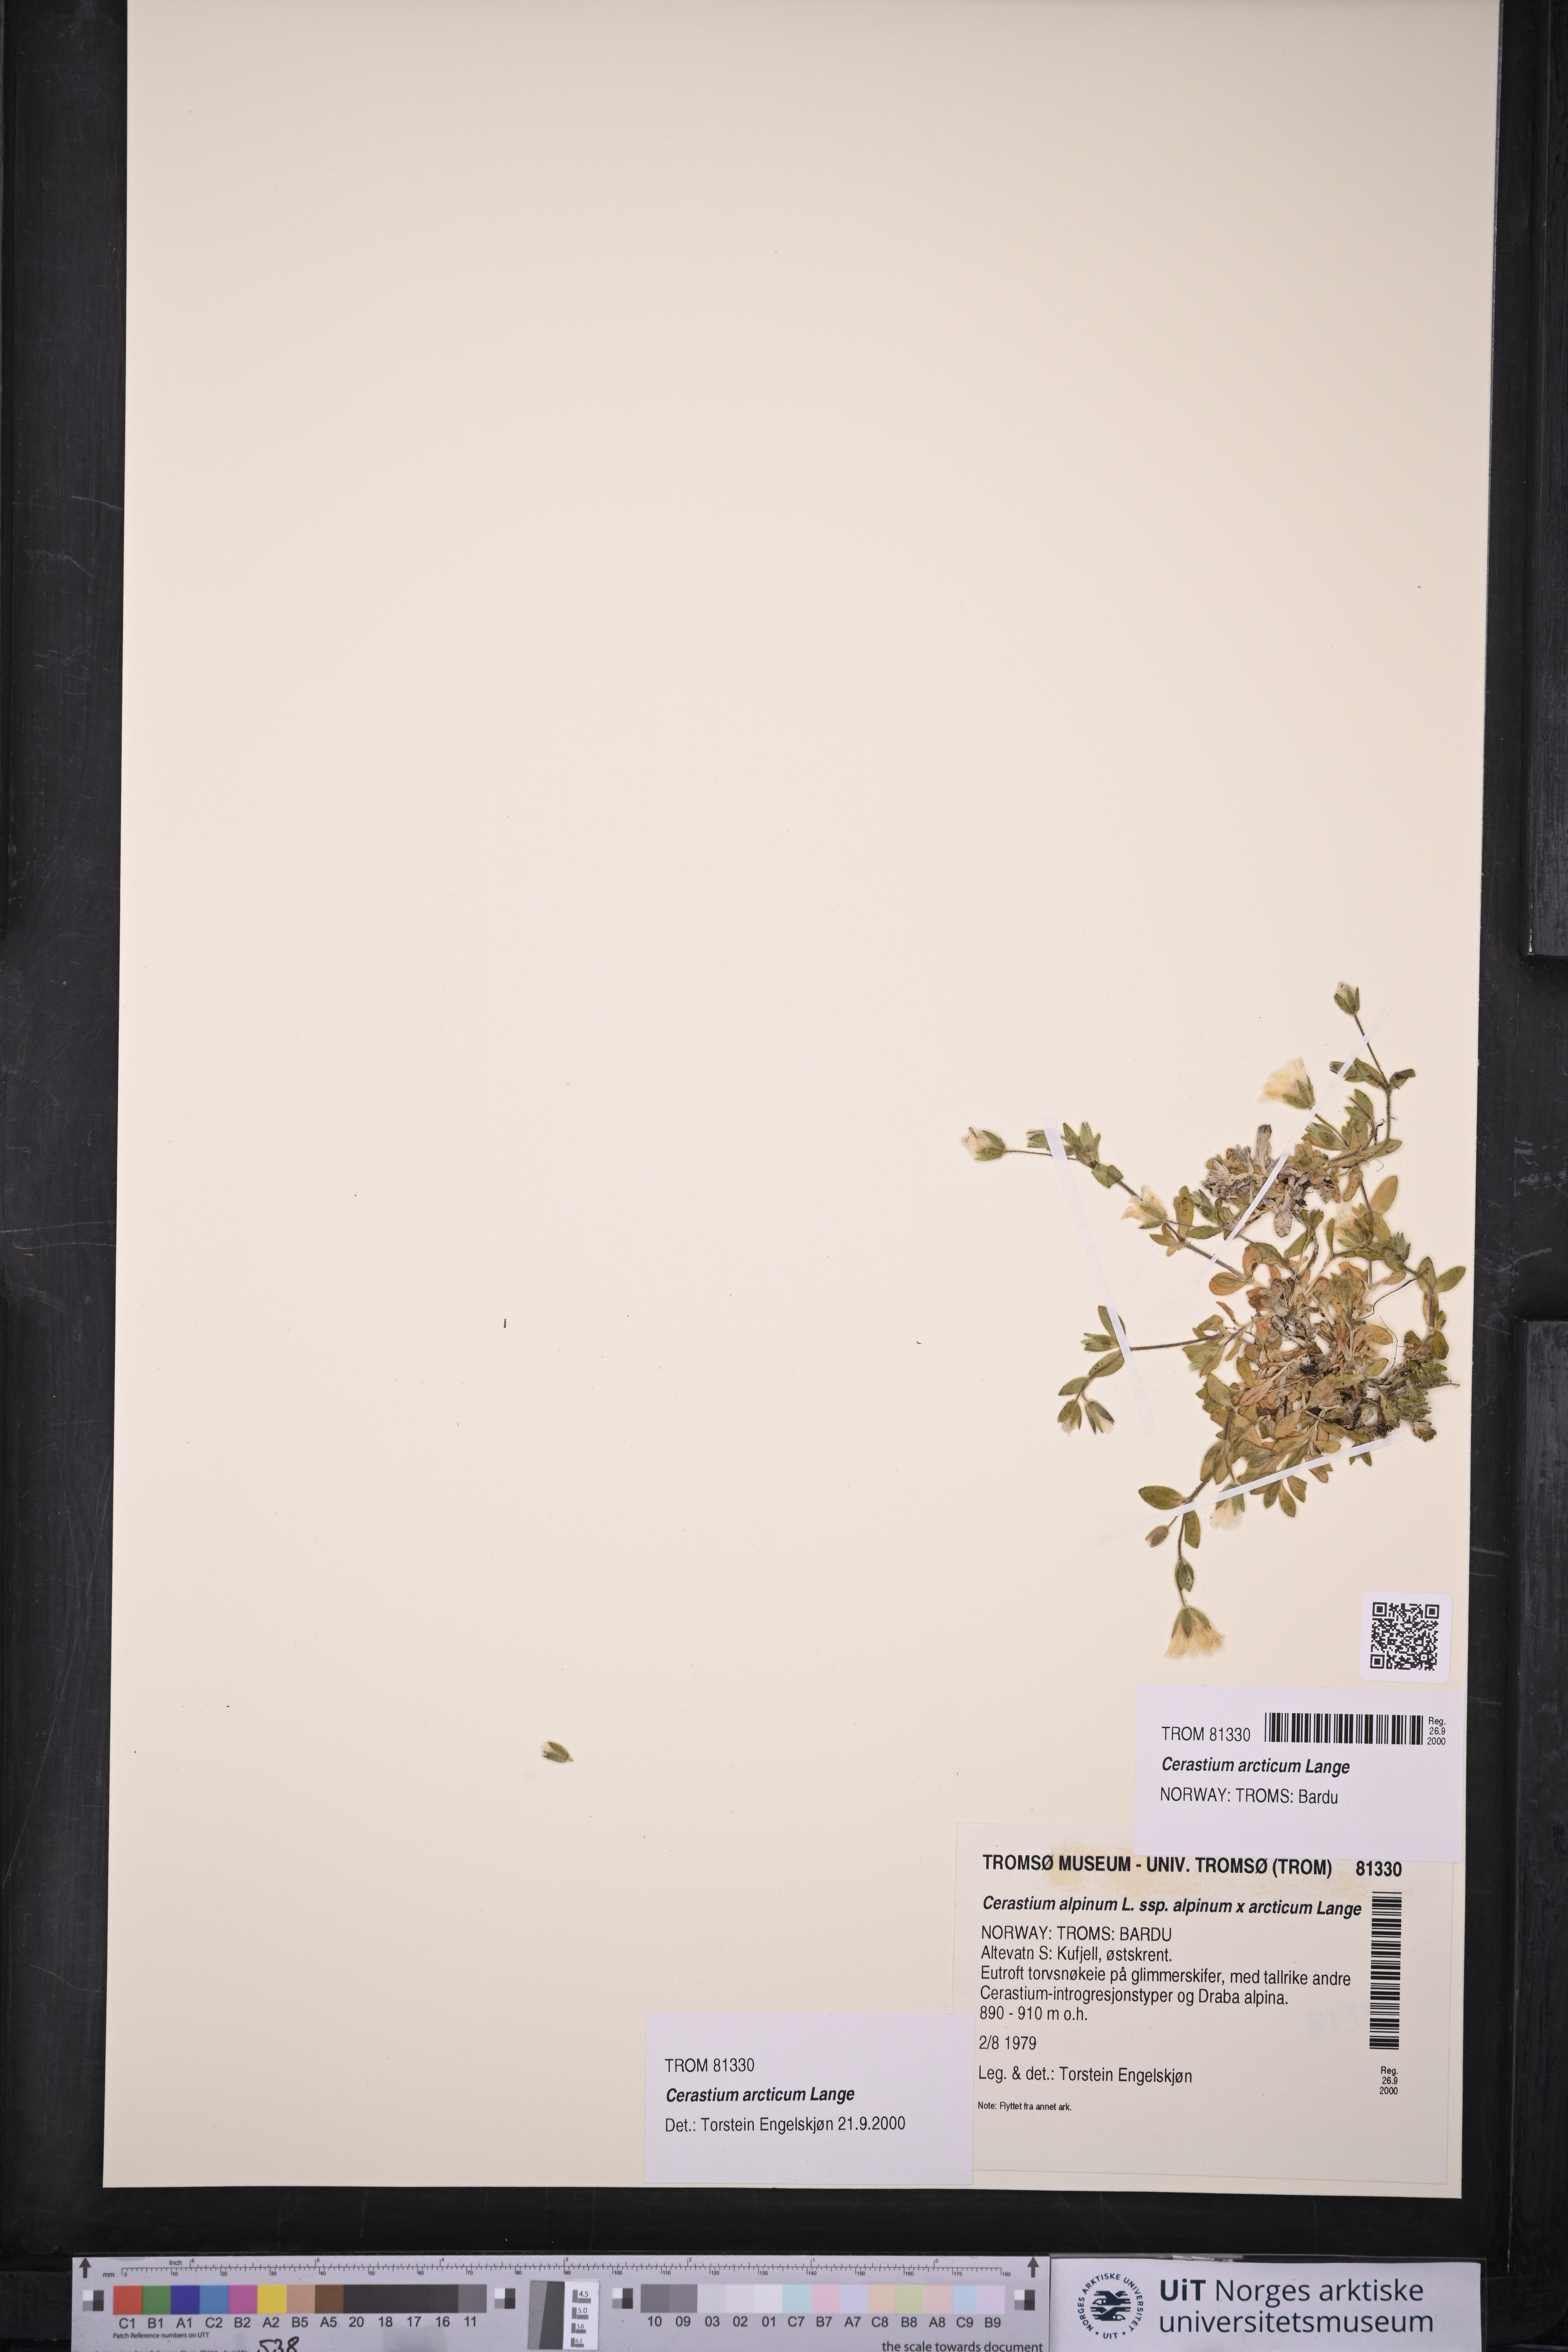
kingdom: Plantae
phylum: Tracheophyta
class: Magnoliopsida
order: Caryophyllales
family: Caryophyllaceae
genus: Cerastium
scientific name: Cerastium arcticum
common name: Arctic mouse-ear
